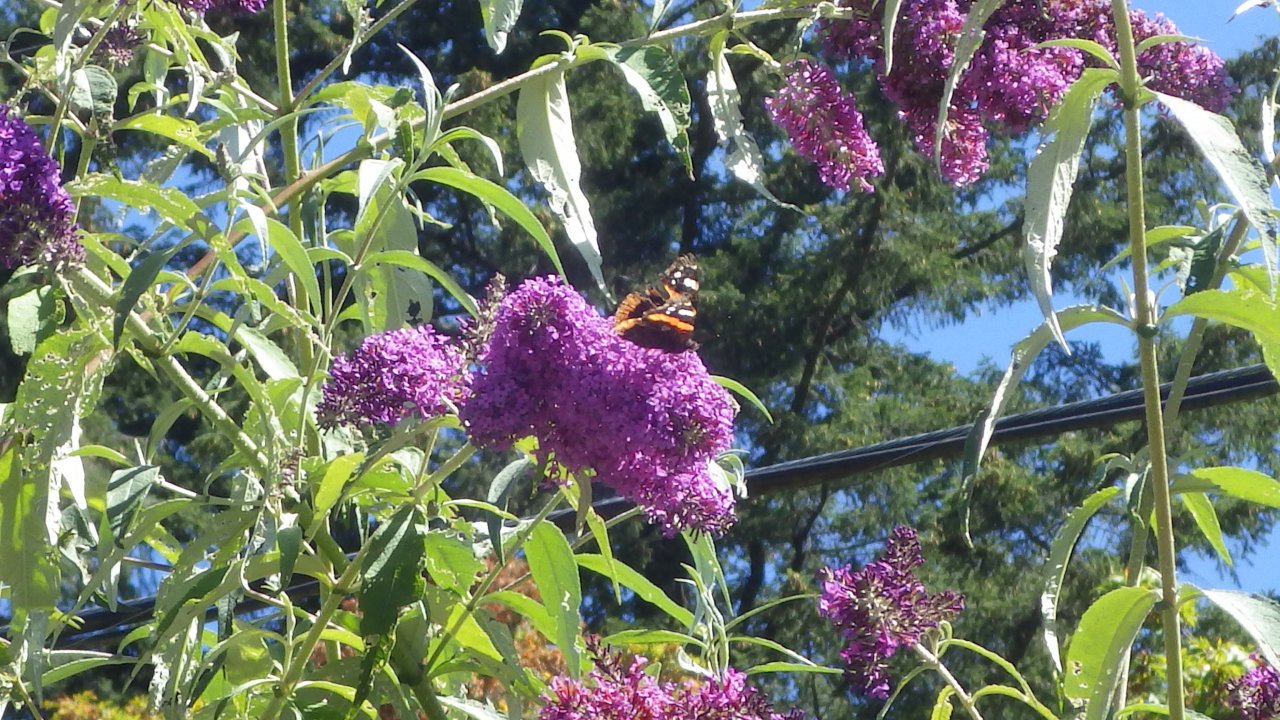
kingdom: Animalia
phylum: Arthropoda
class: Insecta
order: Lepidoptera
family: Nymphalidae
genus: Vanessa
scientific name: Vanessa atalanta
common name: Red Admiral
